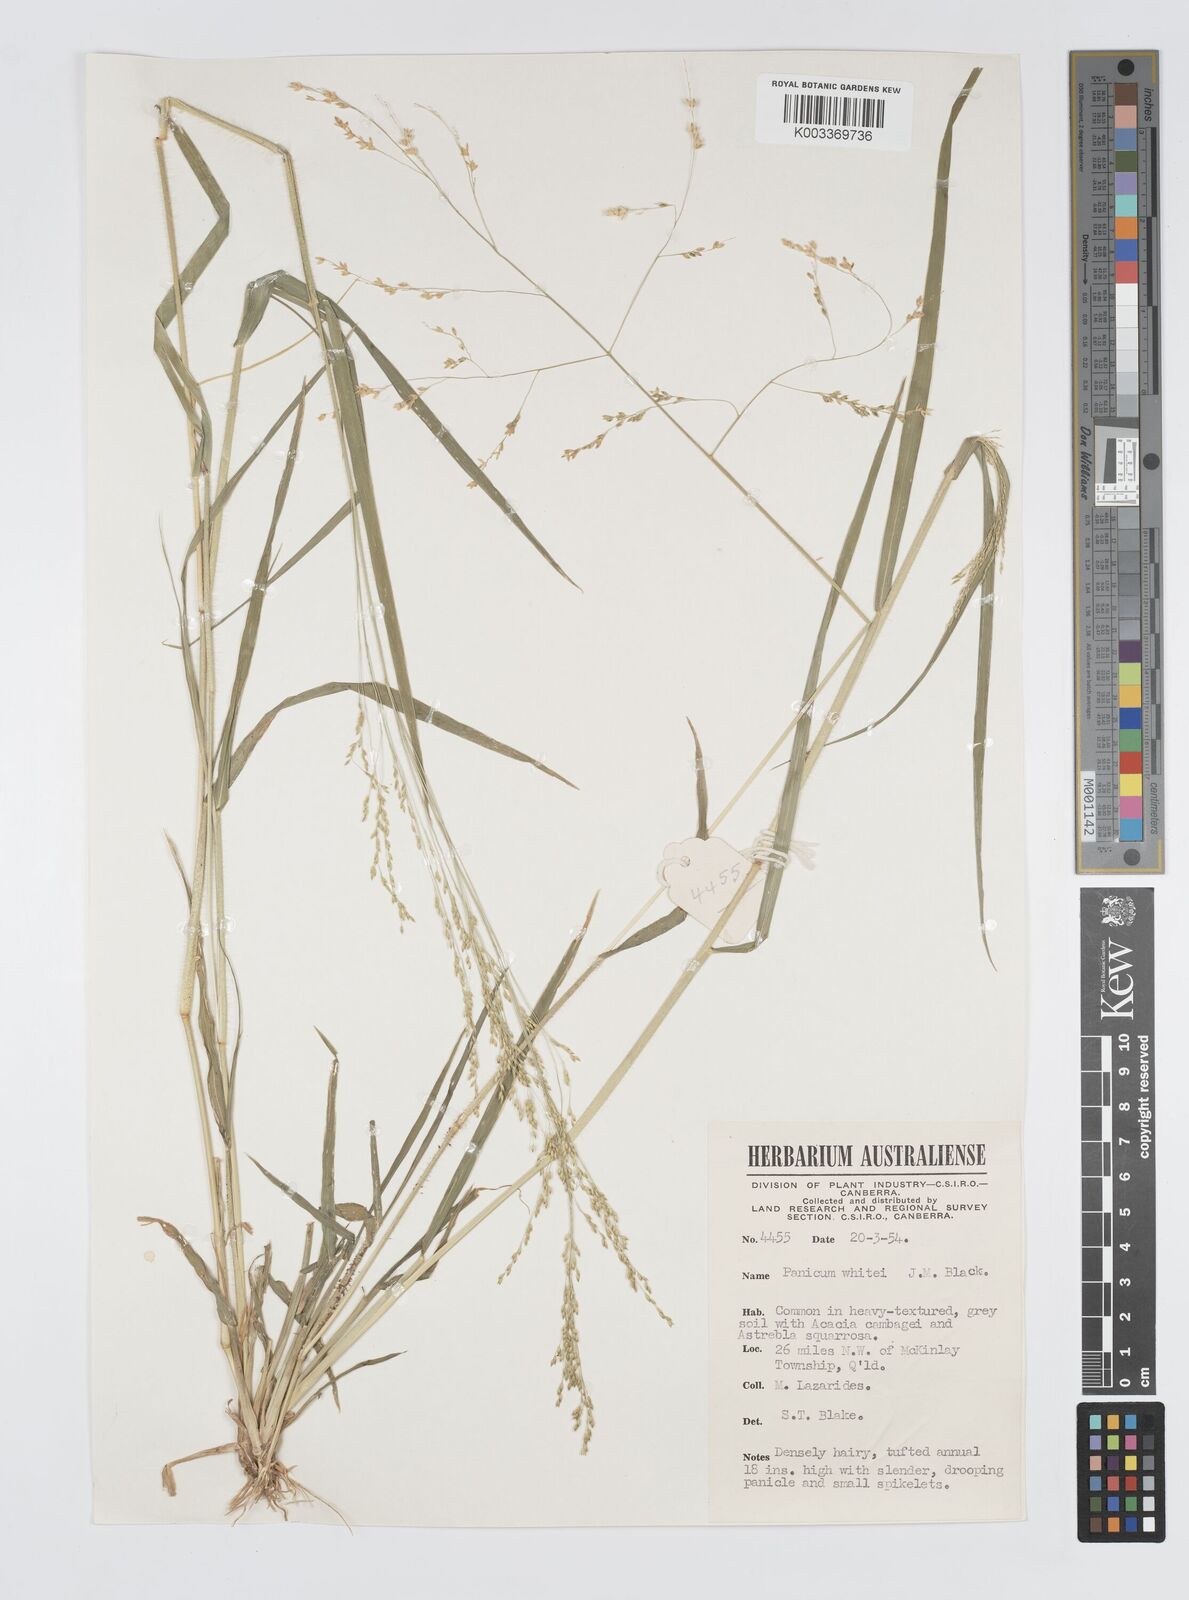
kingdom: Plantae
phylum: Tracheophyta
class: Liliopsida
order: Poales
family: Poaceae
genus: Panicum
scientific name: Panicum laevinode
